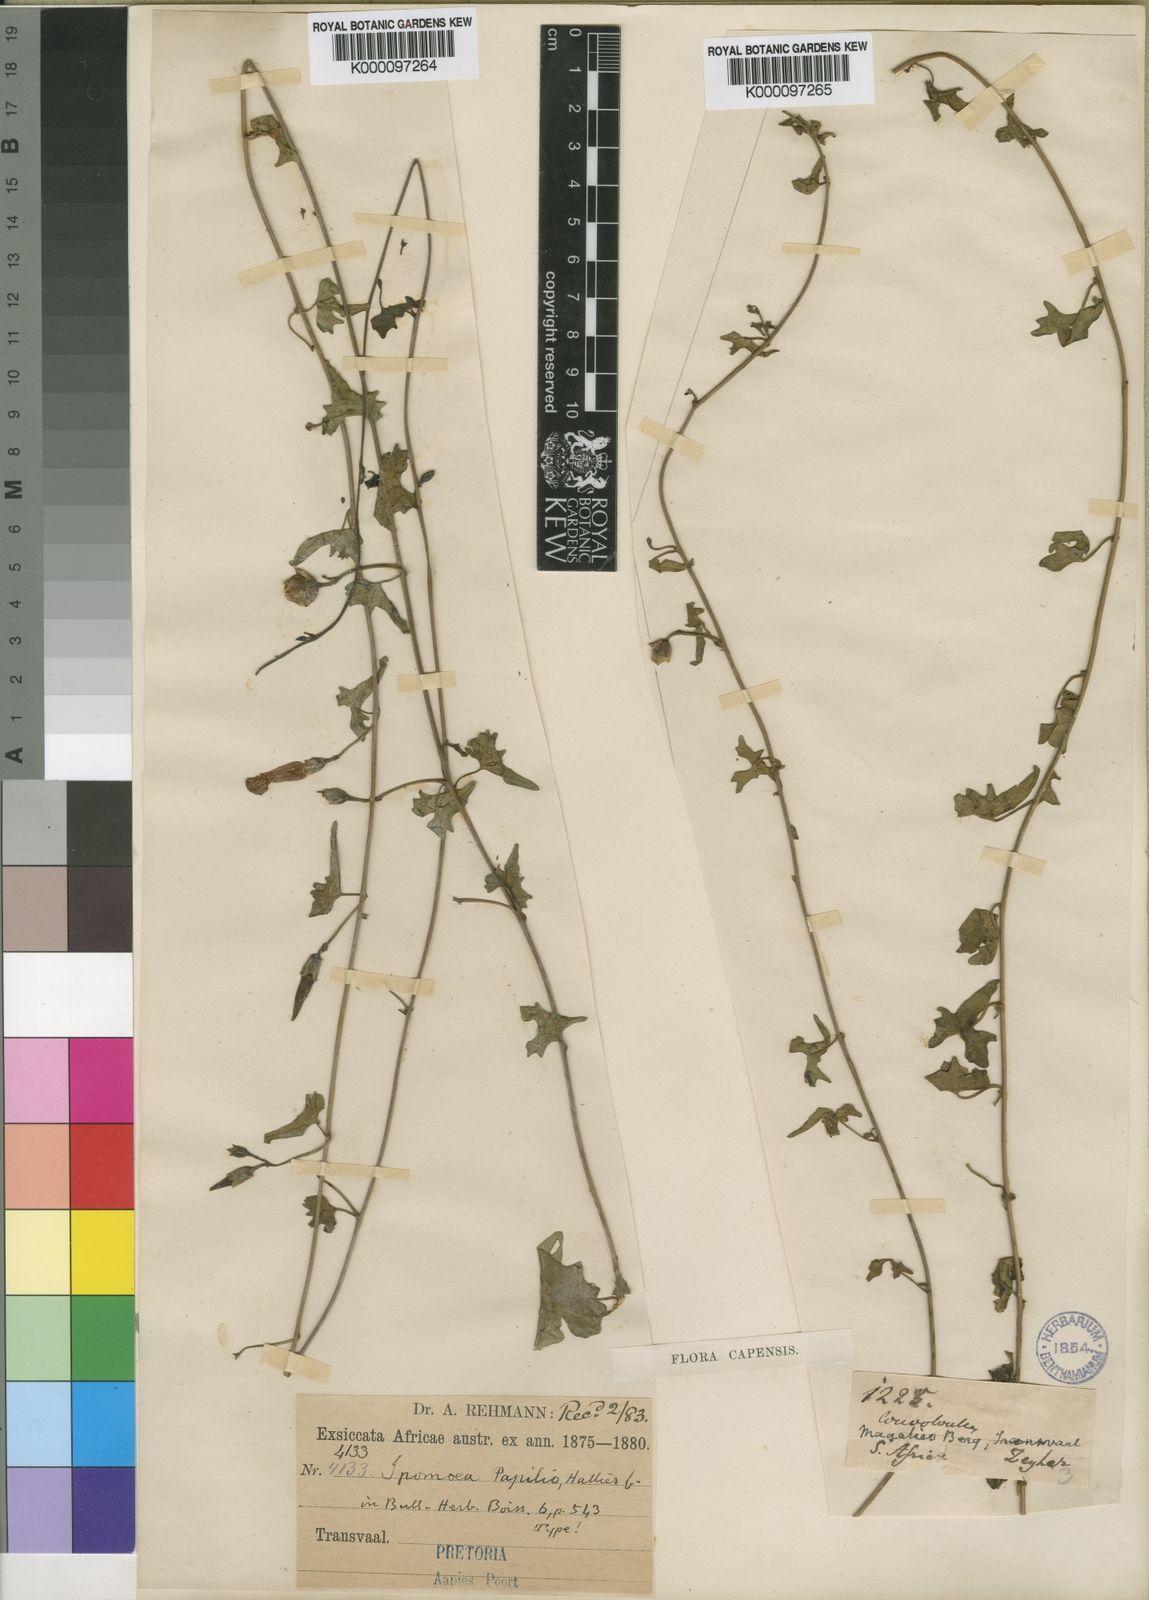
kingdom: Plantae
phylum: Tracheophyta
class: Magnoliopsida
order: Solanales
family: Convolvulaceae
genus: Ipomoea
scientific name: Ipomoea papilio
